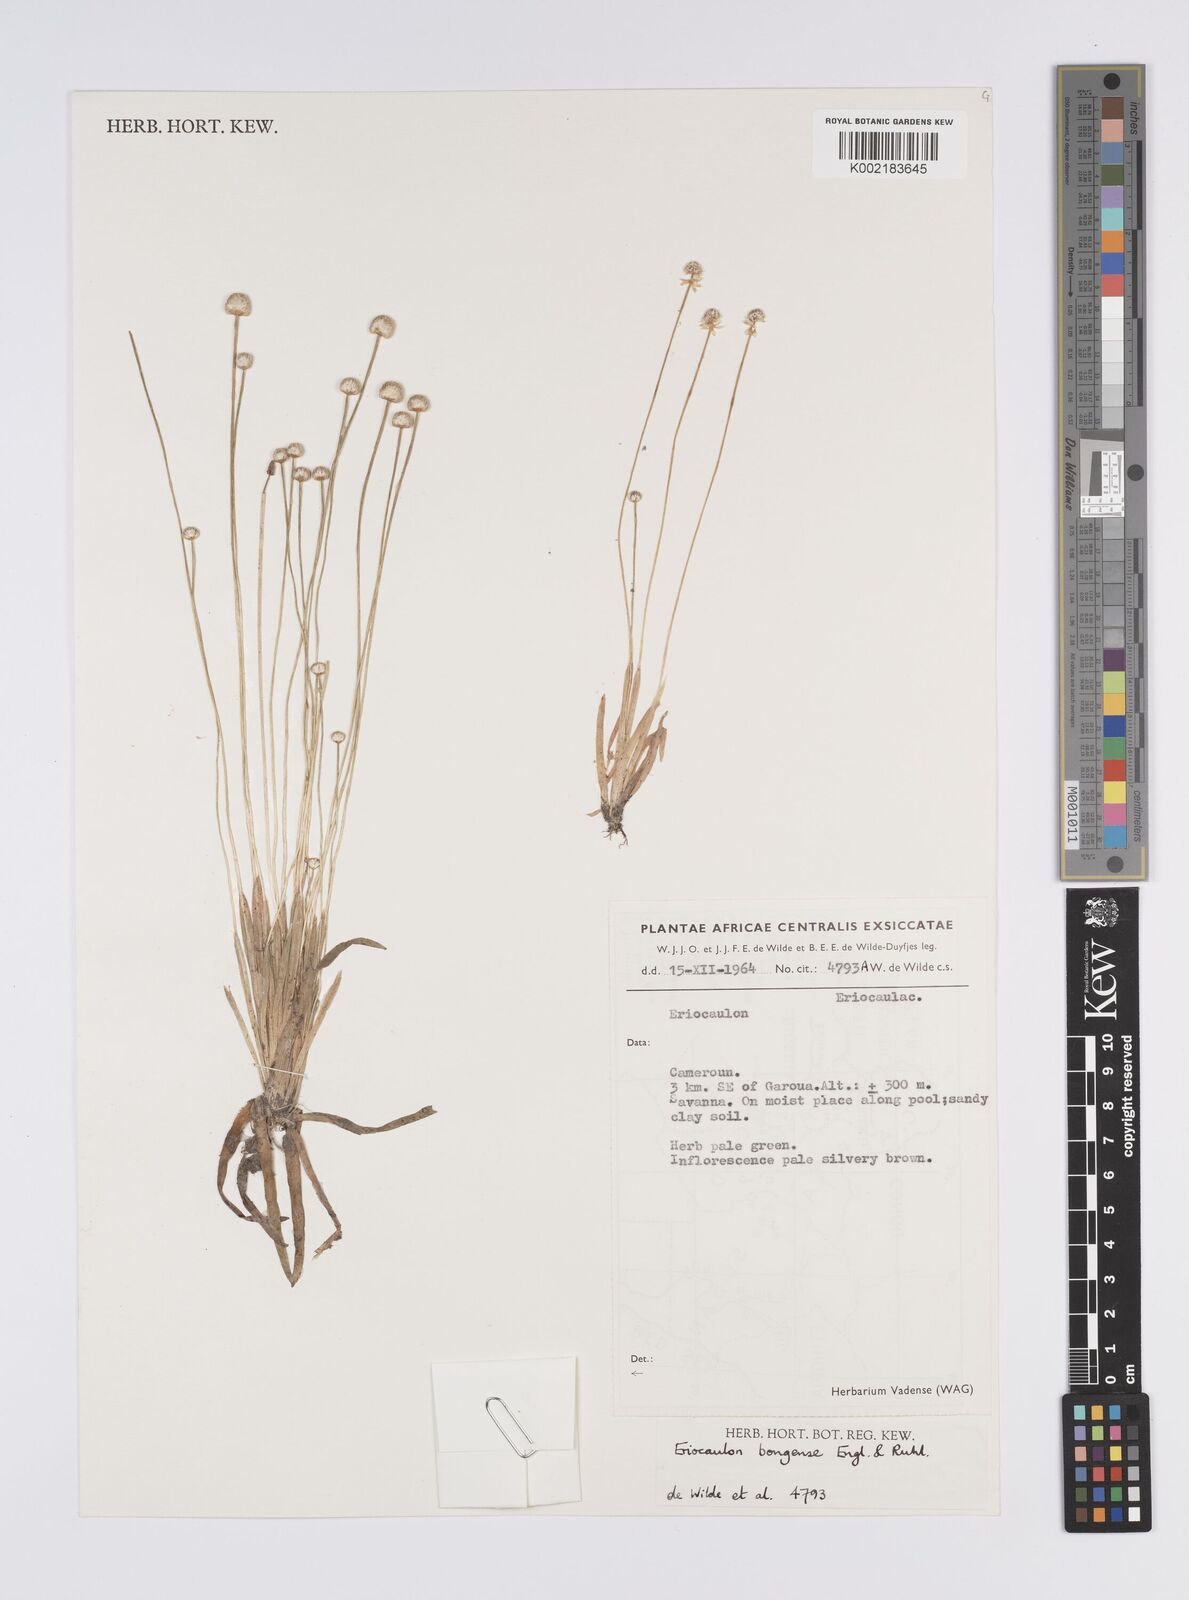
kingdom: Plantae
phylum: Tracheophyta
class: Liliopsida
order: Poales
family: Eriocaulaceae
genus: Eriocaulon
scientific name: Eriocaulon bongense
